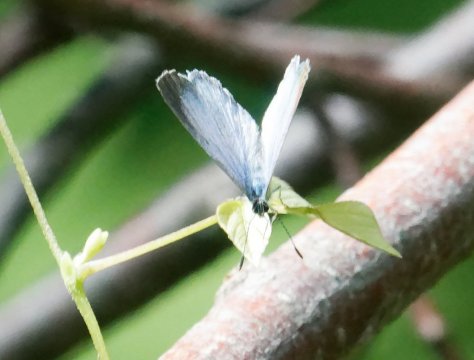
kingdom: Animalia
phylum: Arthropoda
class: Insecta
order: Lepidoptera
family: Lycaenidae
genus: Celastrina
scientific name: Celastrina lucia
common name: Northern Spring Azure
